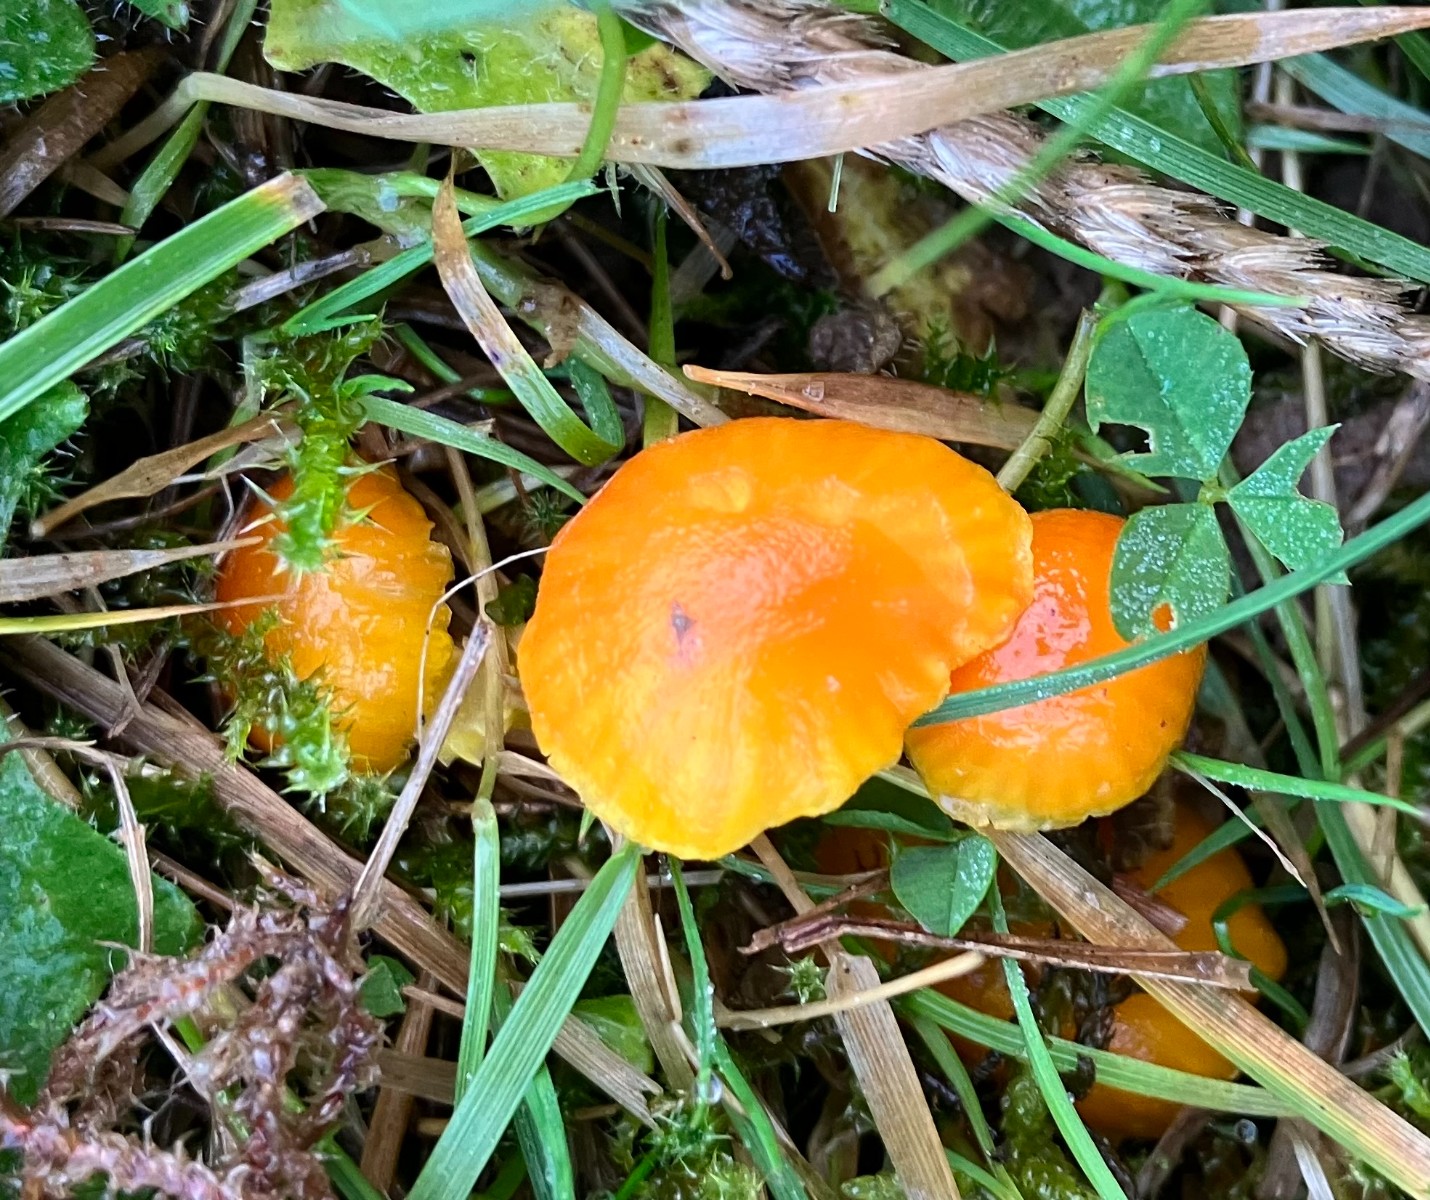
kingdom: Fungi
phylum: Basidiomycota
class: Agaricomycetes
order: Agaricales
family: Hygrophoraceae
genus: Hygrocybe
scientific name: Hygrocybe ceracea
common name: voksgul vokshat
